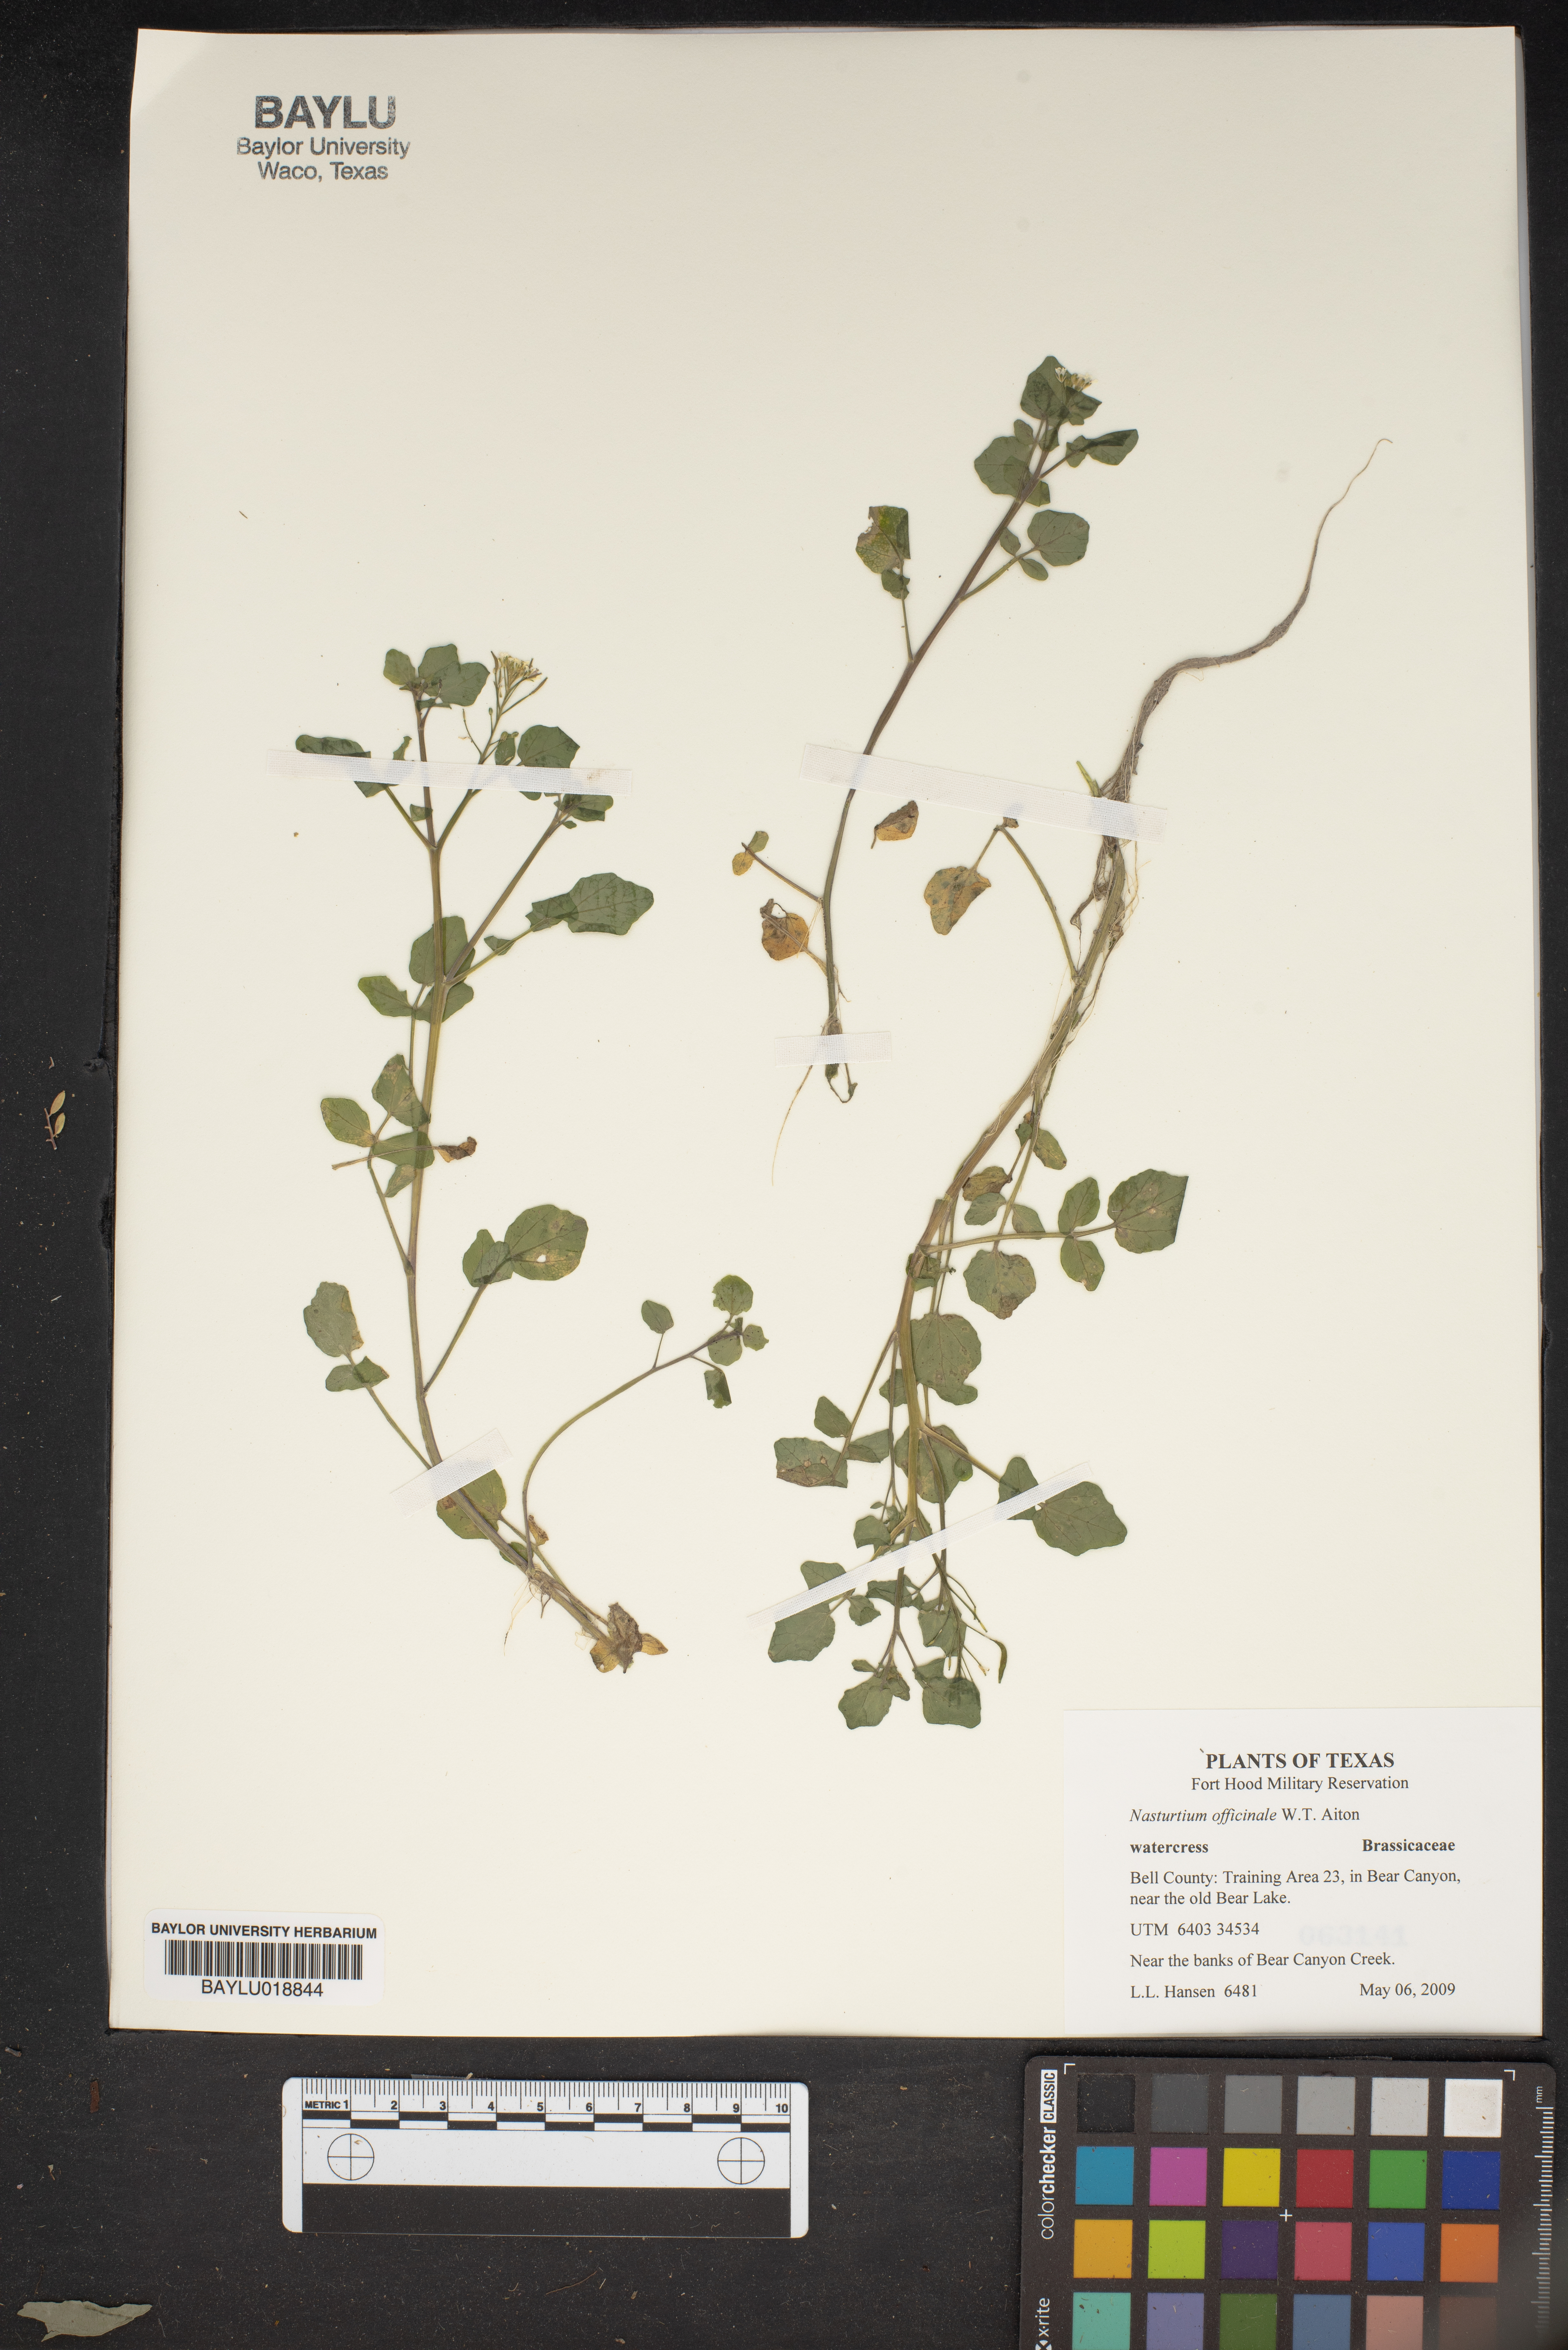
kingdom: Plantae
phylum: Tracheophyta
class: Magnoliopsida
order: Brassicales
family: Brassicaceae
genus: Nasturtium
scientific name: Nasturtium officinale
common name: Watercress
